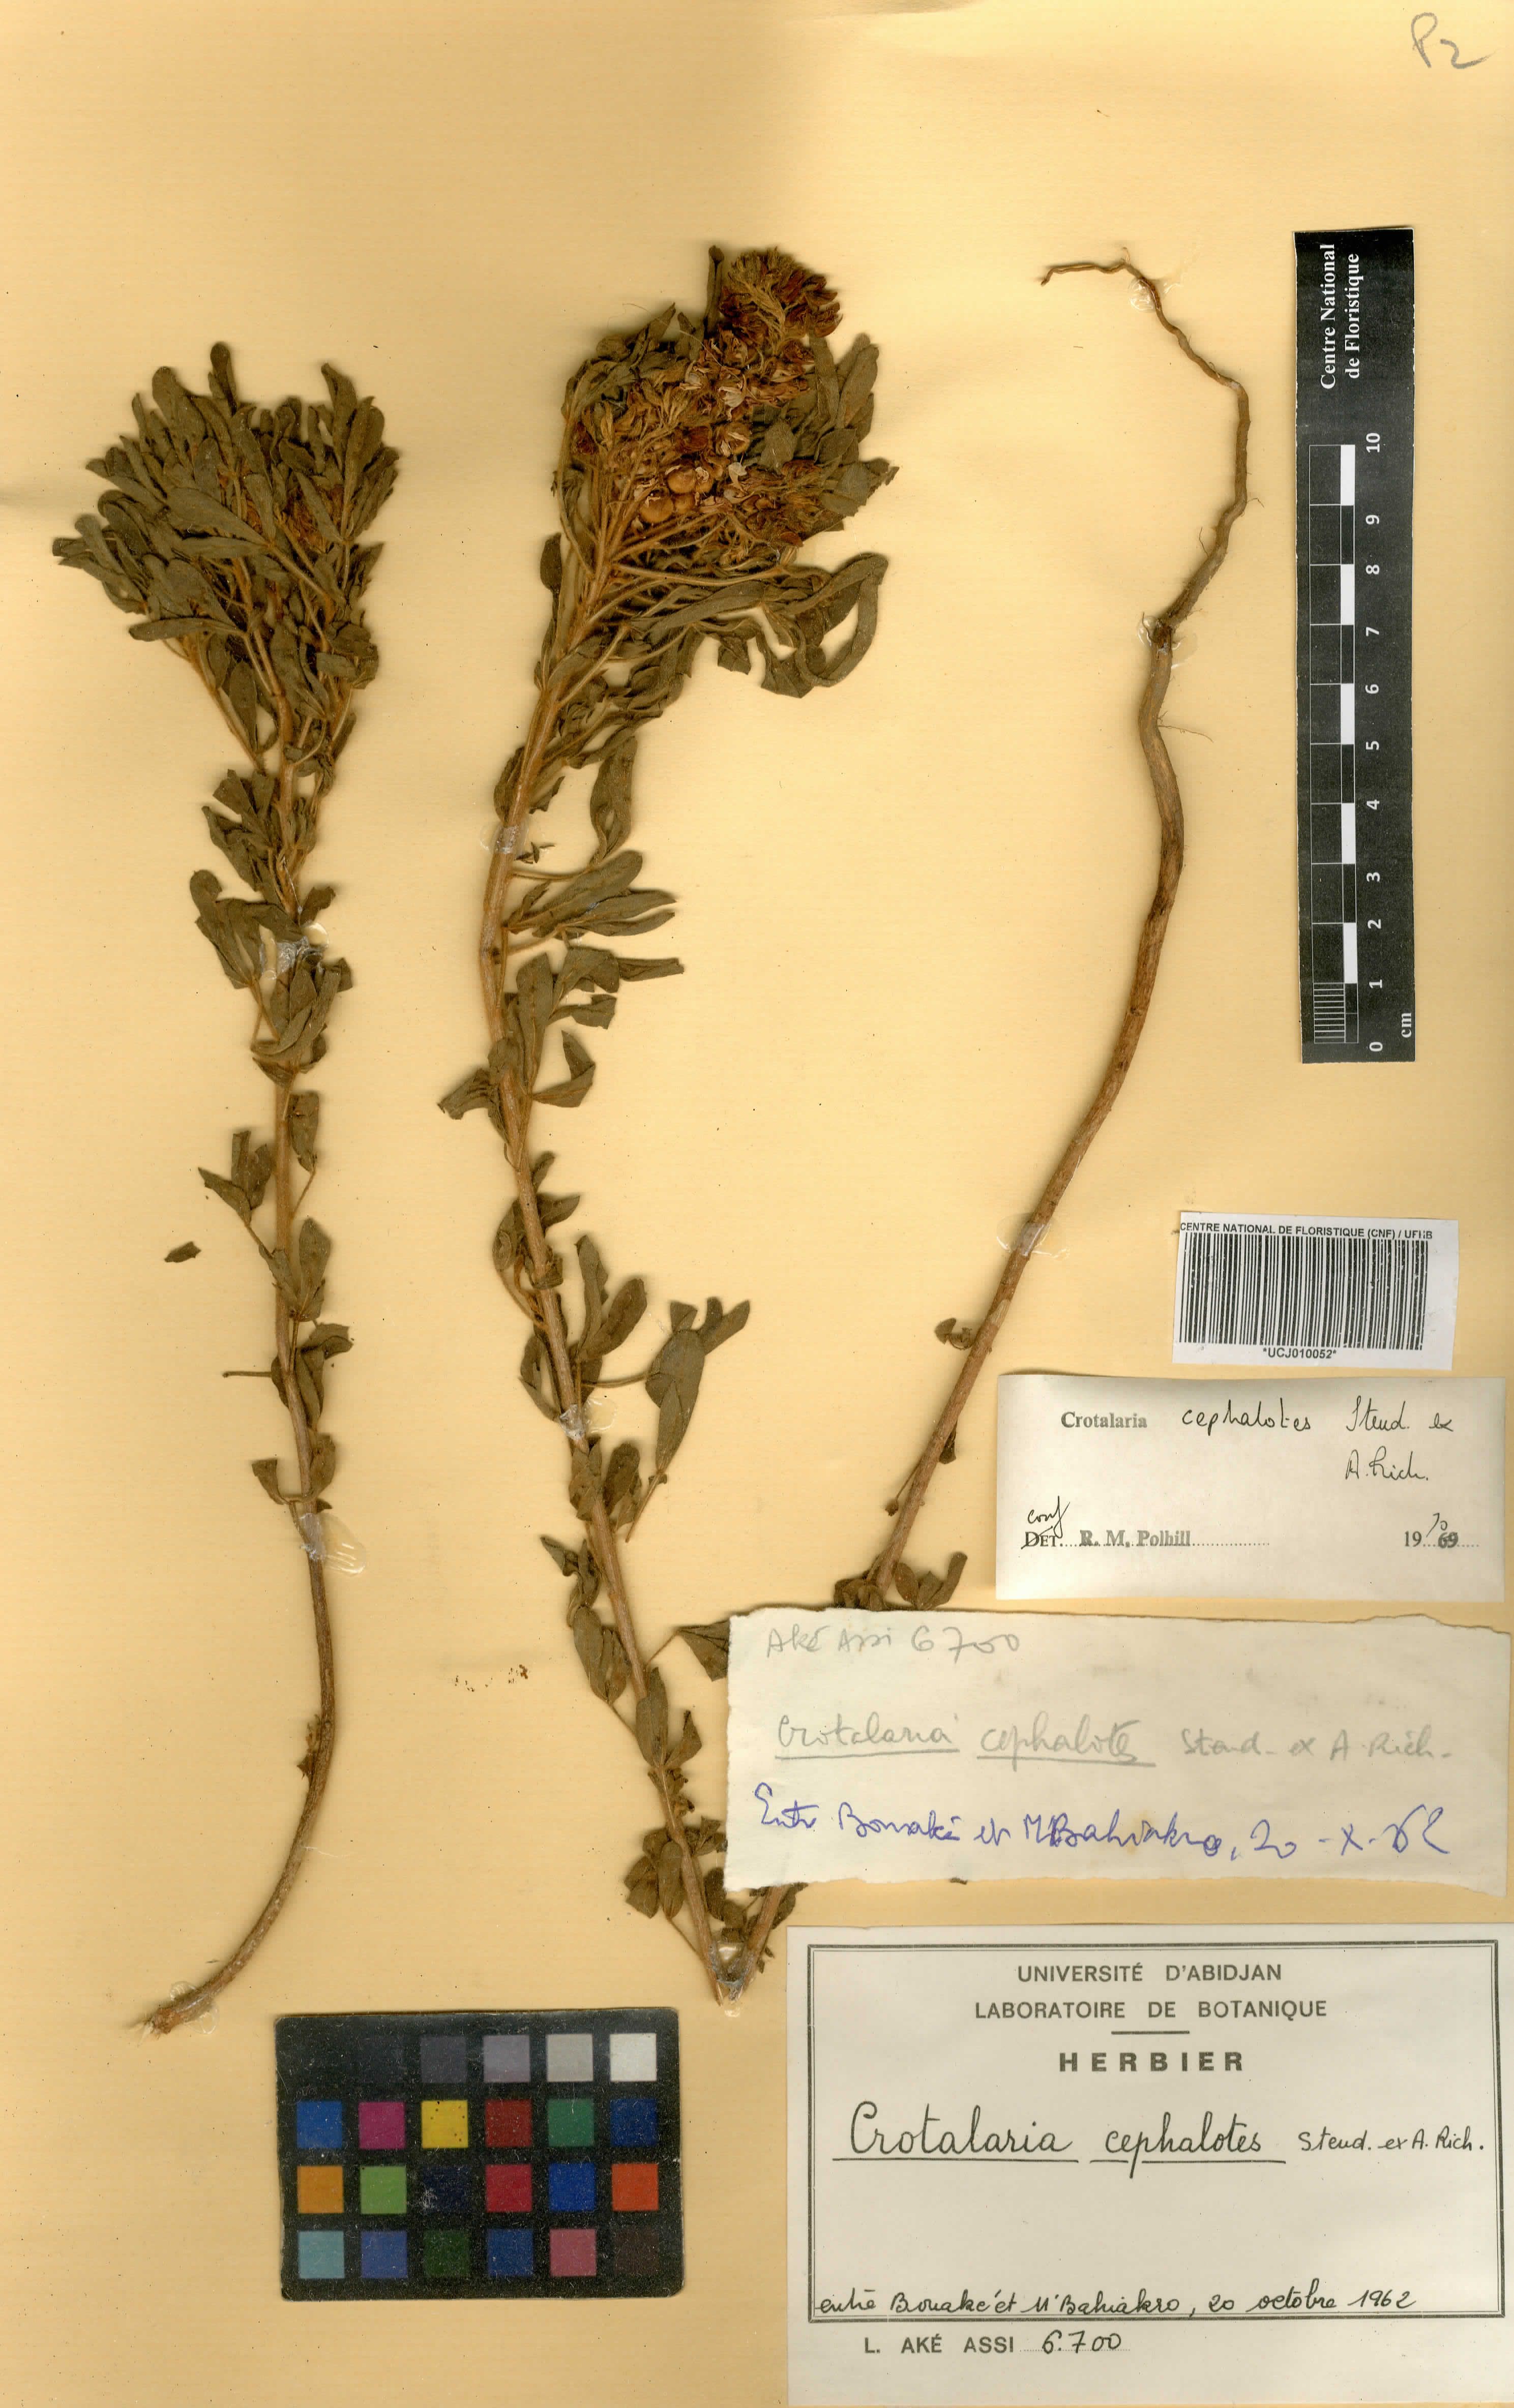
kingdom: Plantae
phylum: Tracheophyta
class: Magnoliopsida
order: Fabales
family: Fabaceae
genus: Crotalaria
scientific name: Crotalaria cephalotes
